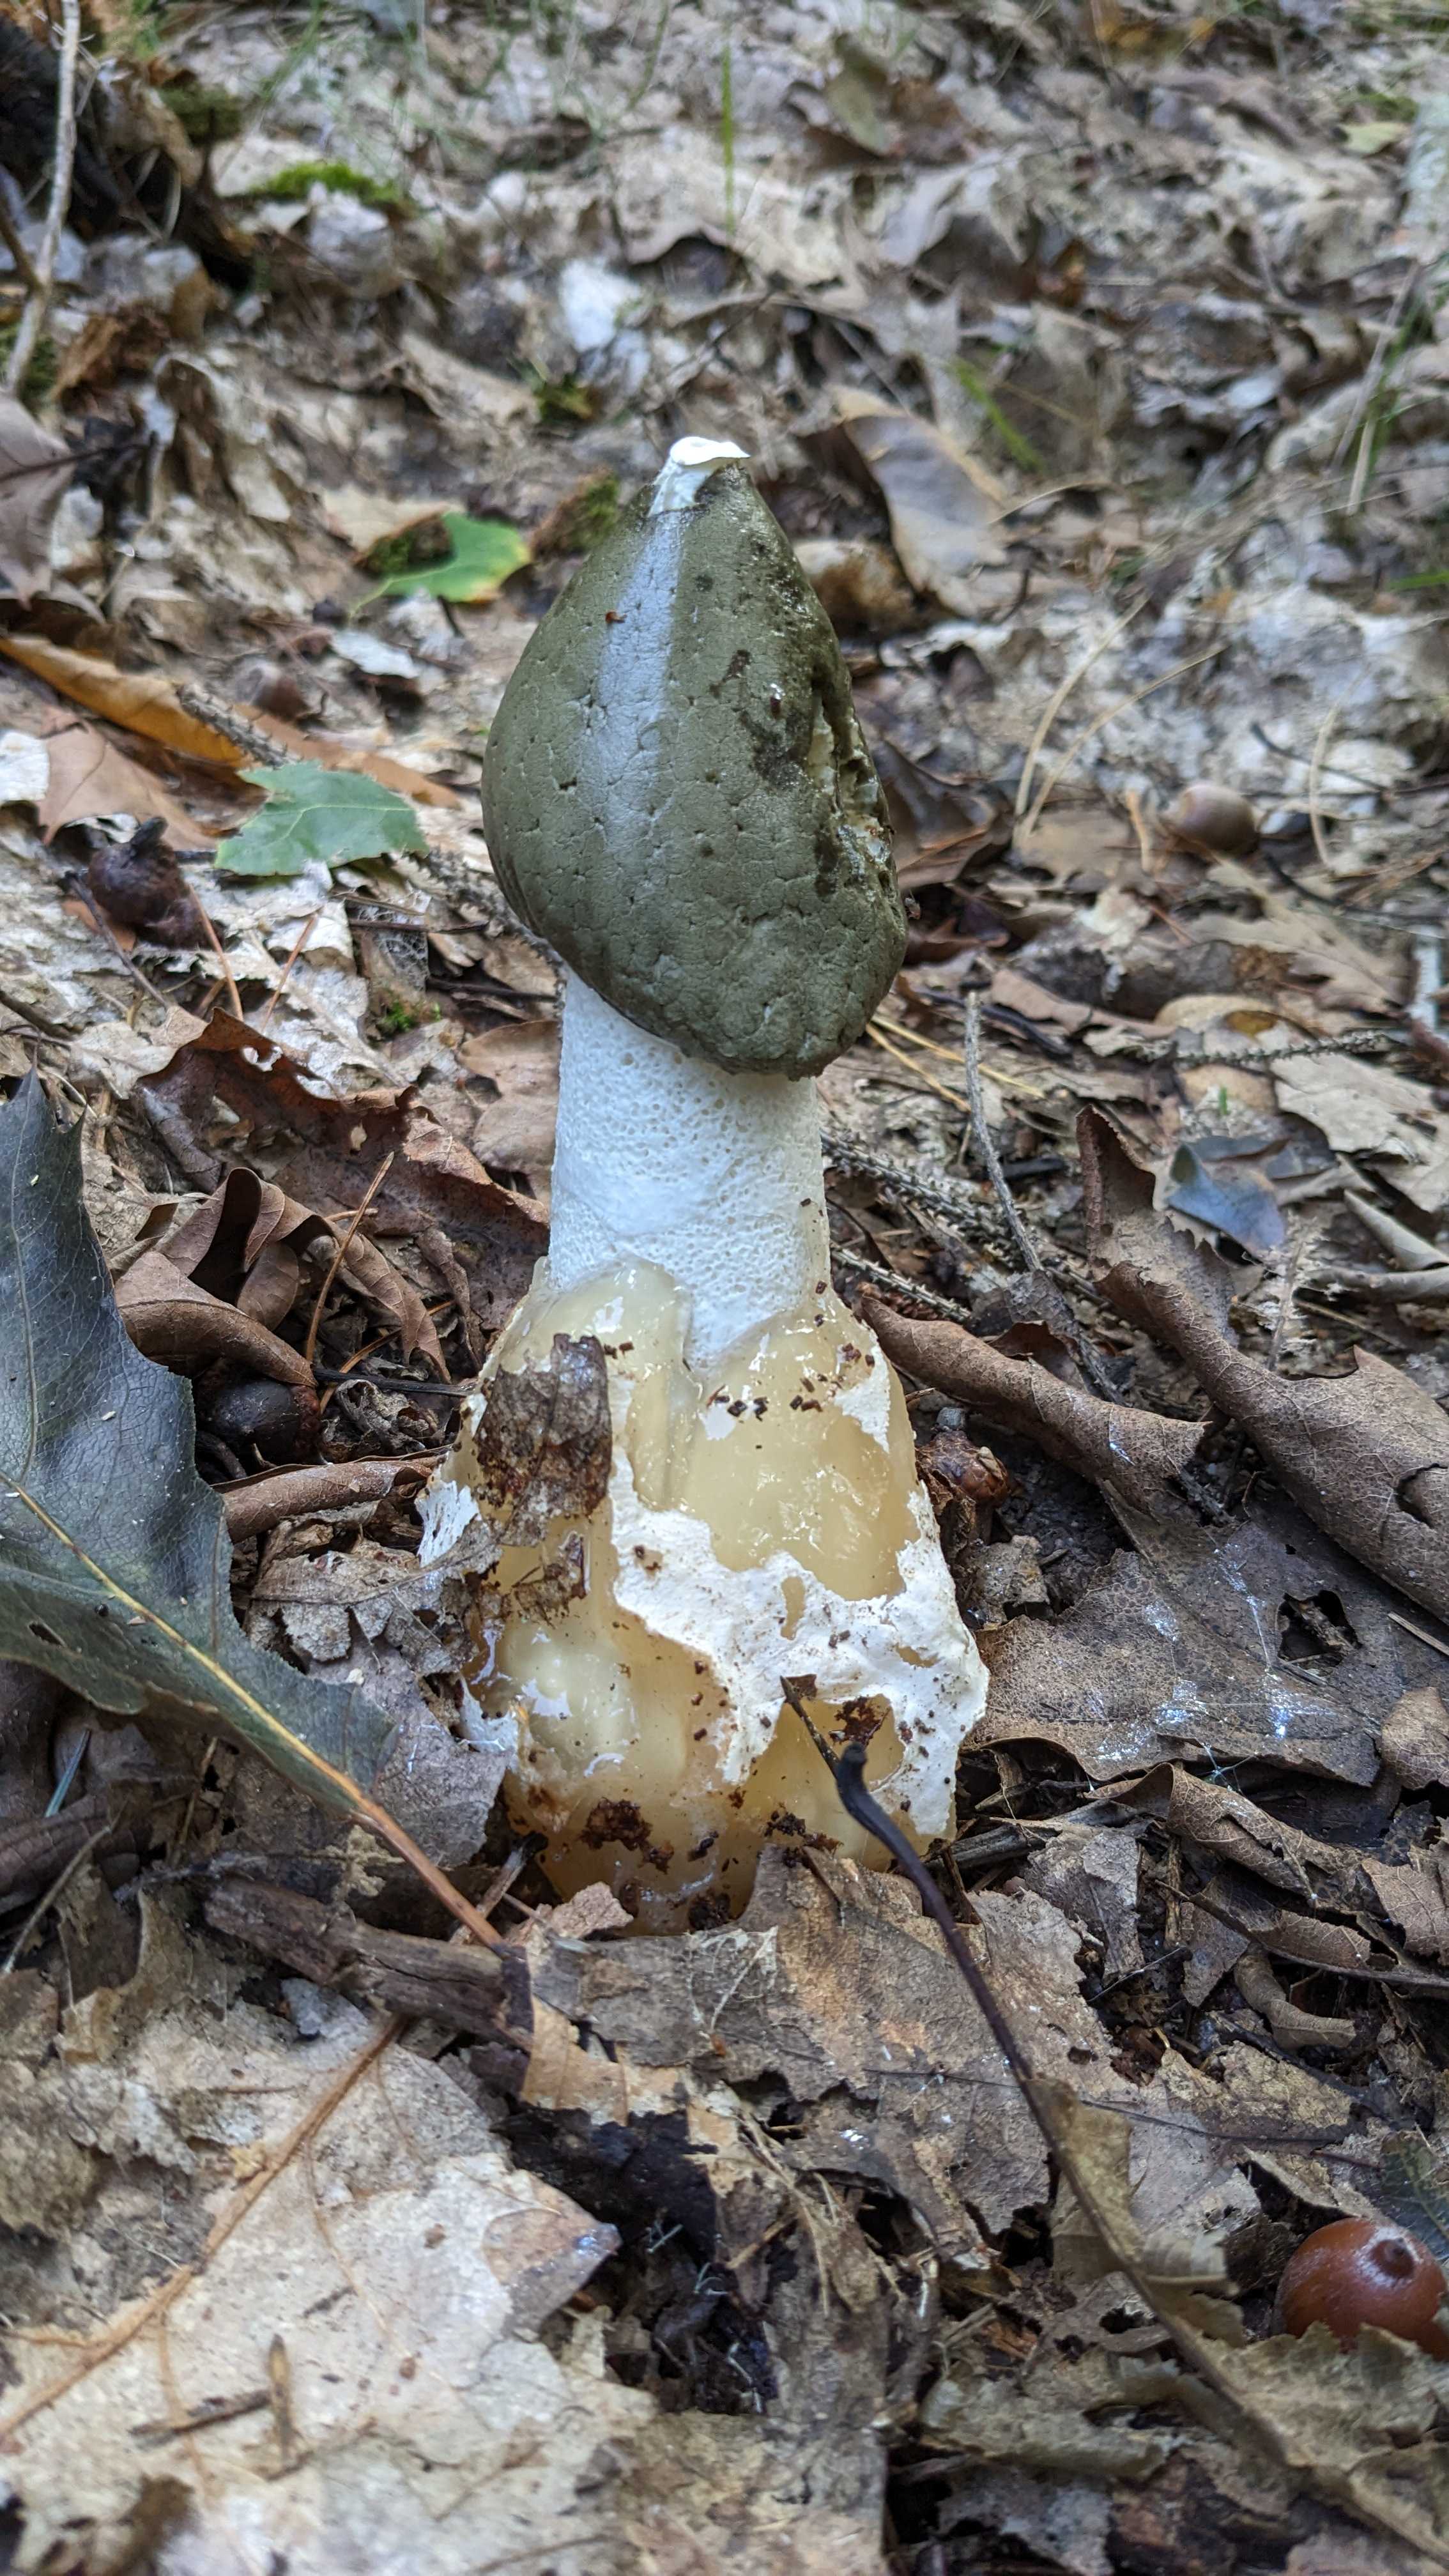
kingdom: Fungi
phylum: Basidiomycota
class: Agaricomycetes
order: Phallales
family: Phallaceae
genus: Phallus
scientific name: Phallus impudicus
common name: almindelig stinksvamp
